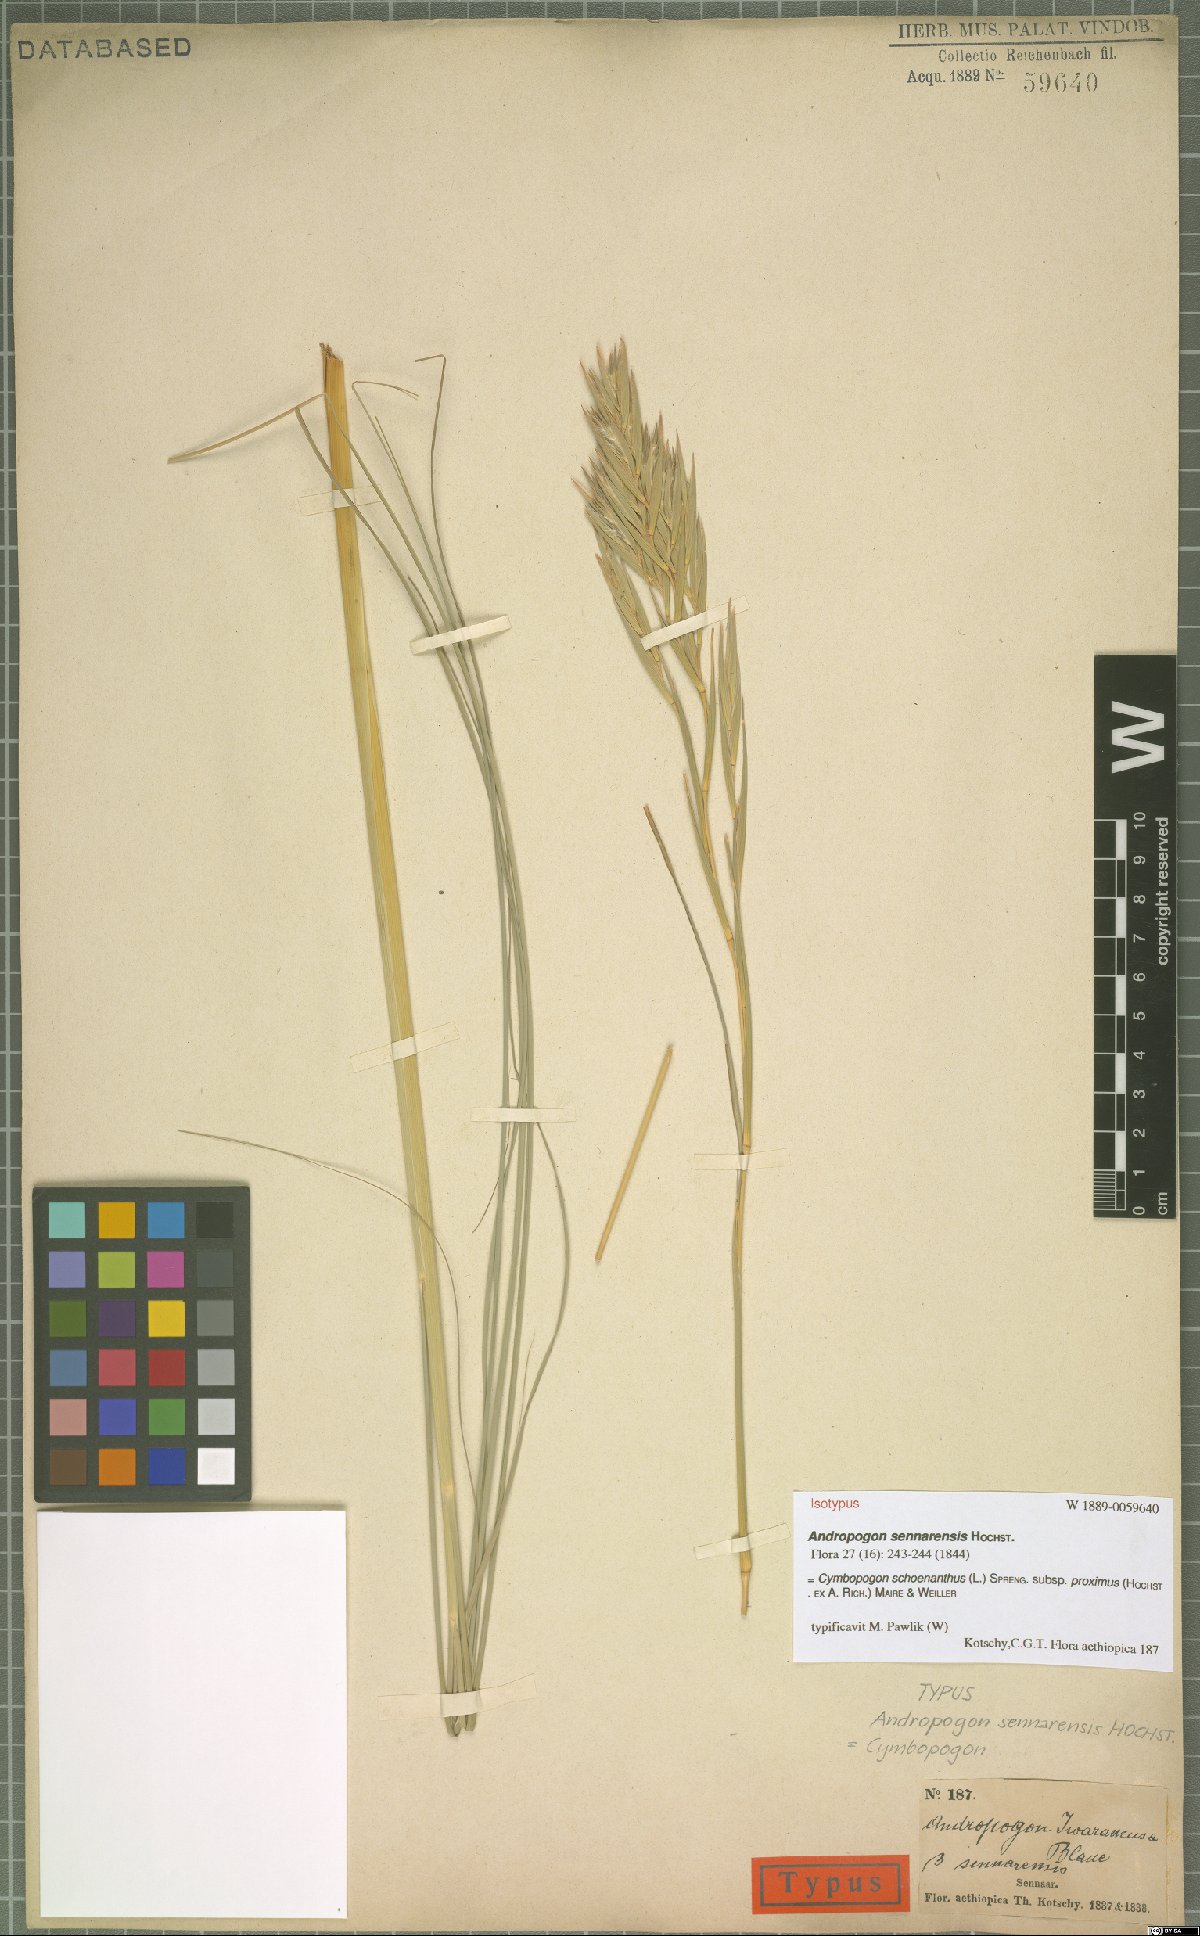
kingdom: Plantae
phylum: Tracheophyta
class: Liliopsida
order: Poales
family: Poaceae
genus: Cymbopogon
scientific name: Cymbopogon schoenanthus
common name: Geranium grass
